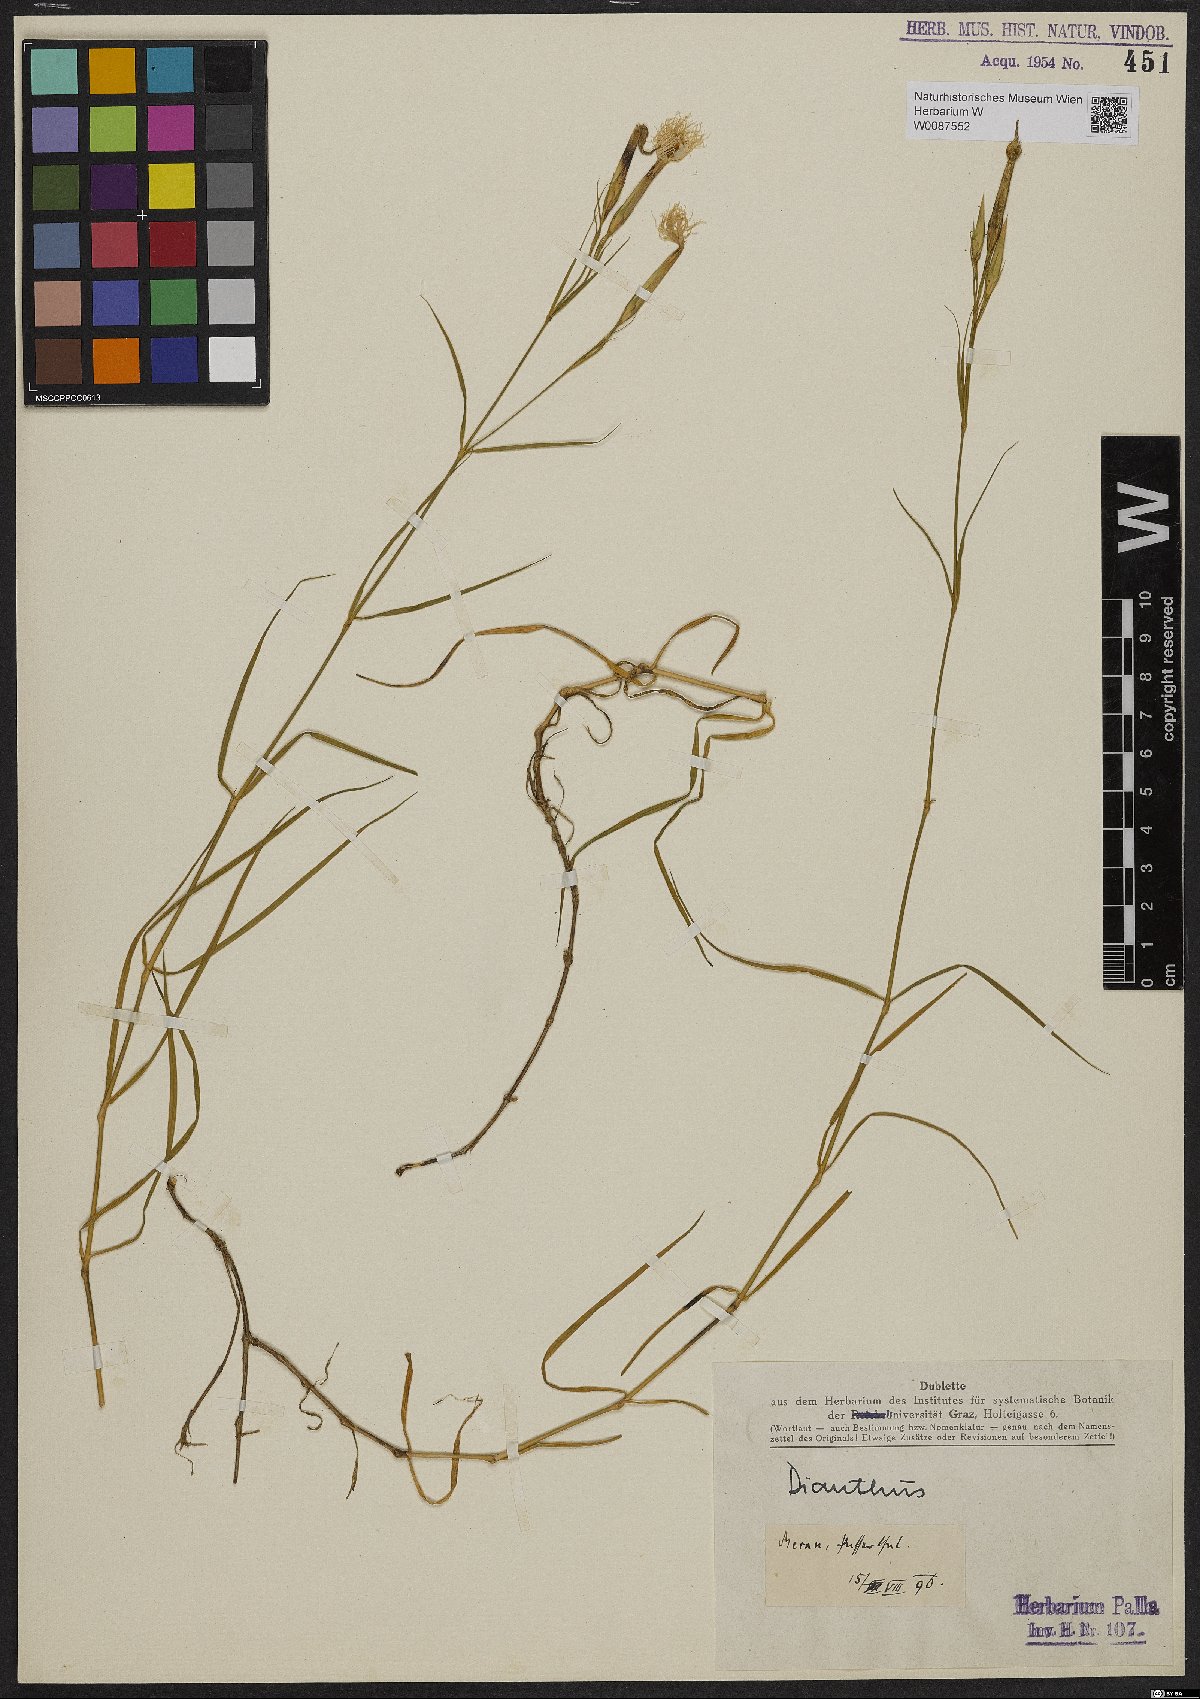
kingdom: Plantae
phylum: Tracheophyta
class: Magnoliopsida
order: Caryophyllales
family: Caryophyllaceae
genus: Dianthus
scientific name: Dianthus
